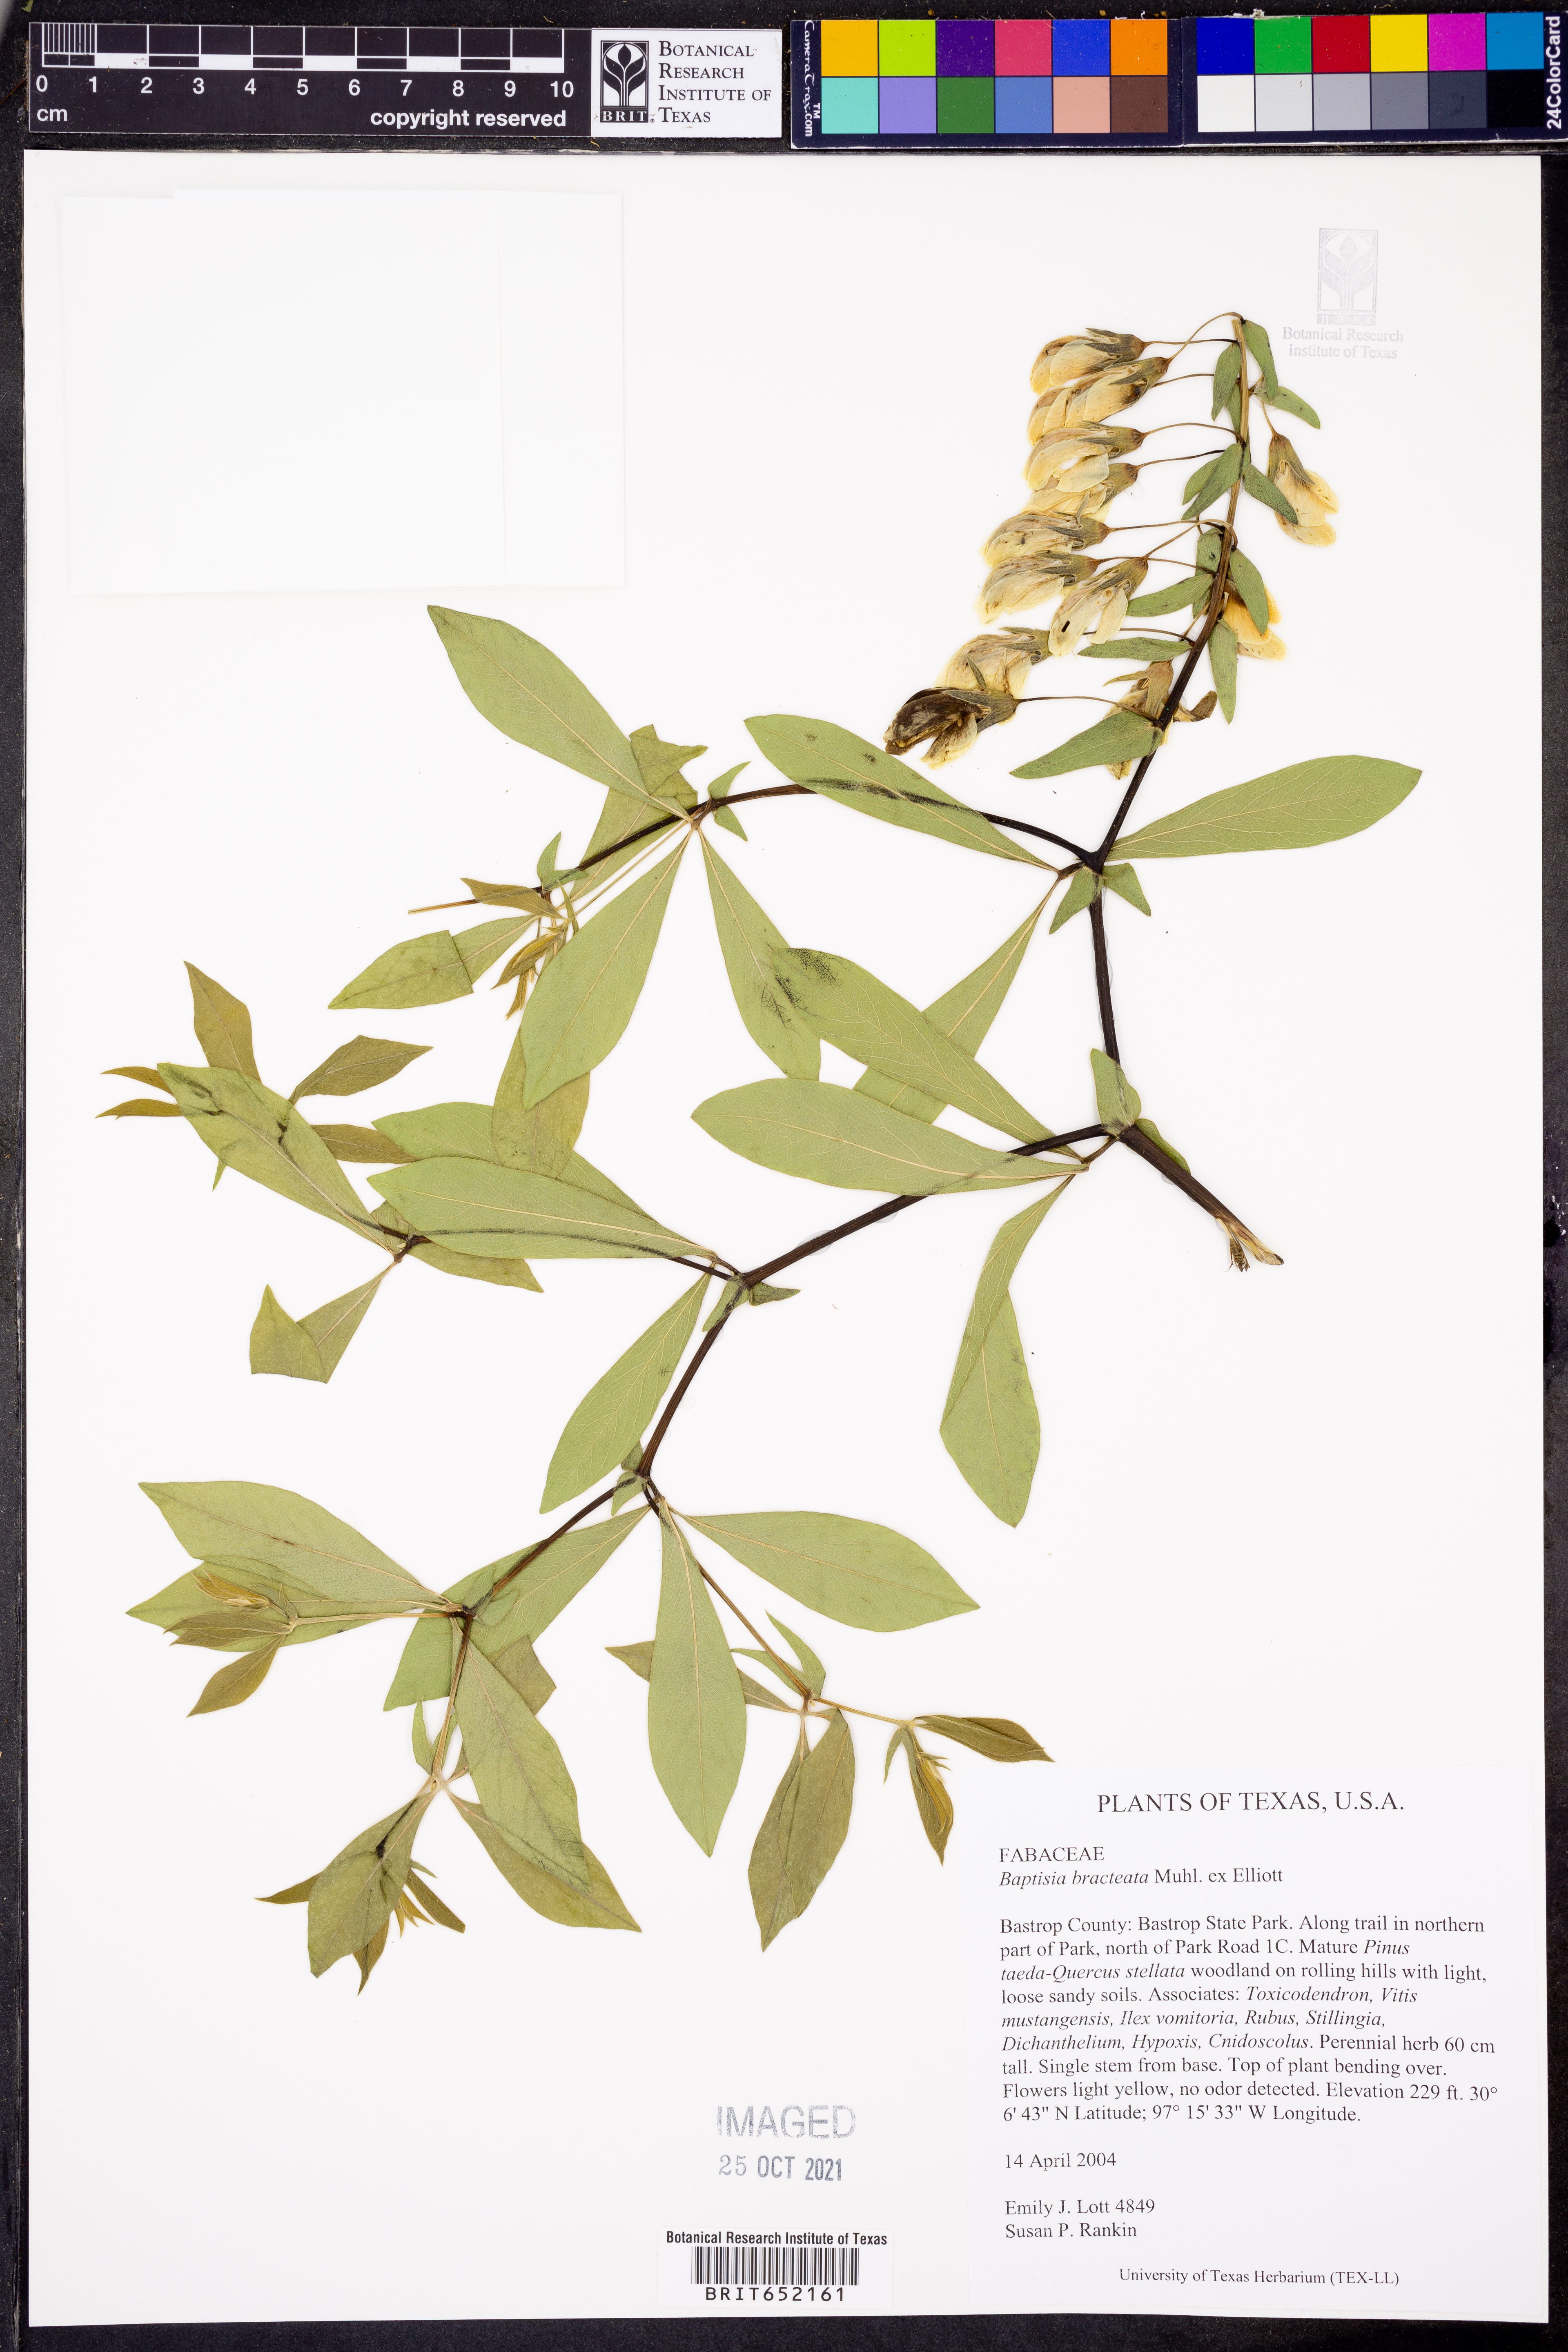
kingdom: Plantae
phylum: Tracheophyta
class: Magnoliopsida
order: Fabales
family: Fabaceae
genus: Baptisia
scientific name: Baptisia bracteata
